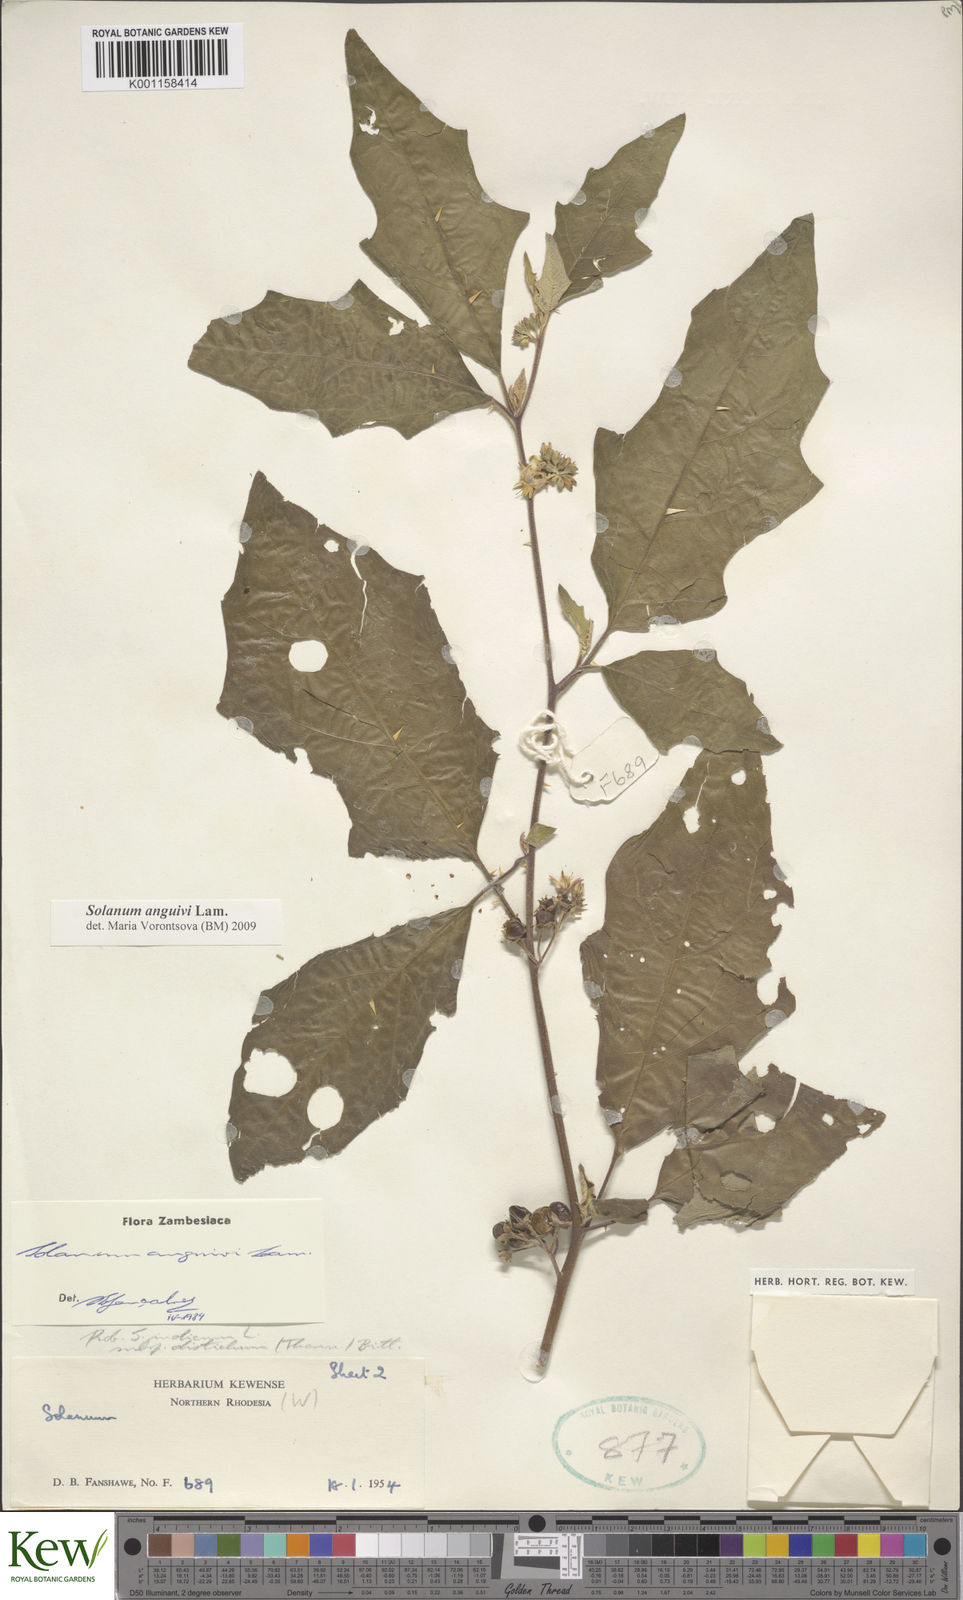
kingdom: Plantae
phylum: Tracheophyta
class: Magnoliopsida
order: Solanales
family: Solanaceae
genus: Solanum
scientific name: Solanum anguivi
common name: Forest bitterberry
